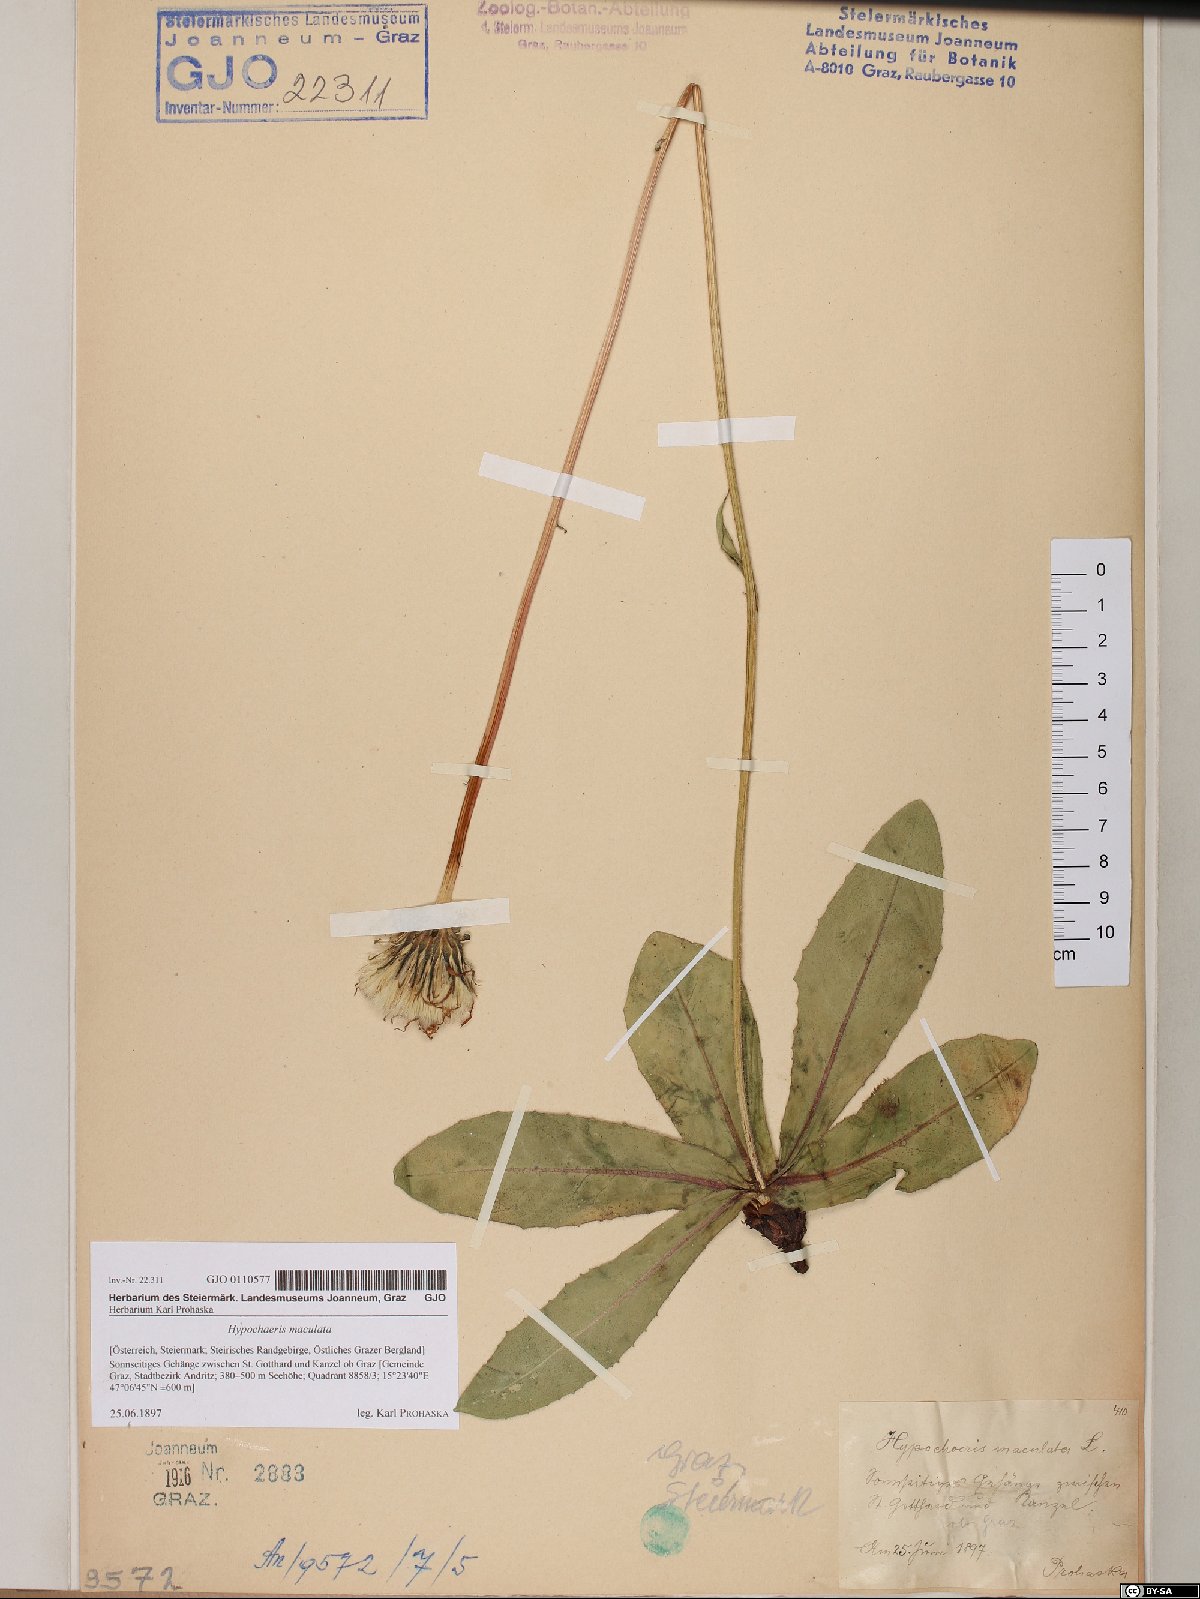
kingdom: Plantae
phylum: Tracheophyta
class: Magnoliopsida
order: Asterales
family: Asteraceae
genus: Trommsdorffia
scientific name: Trommsdorffia maculata
